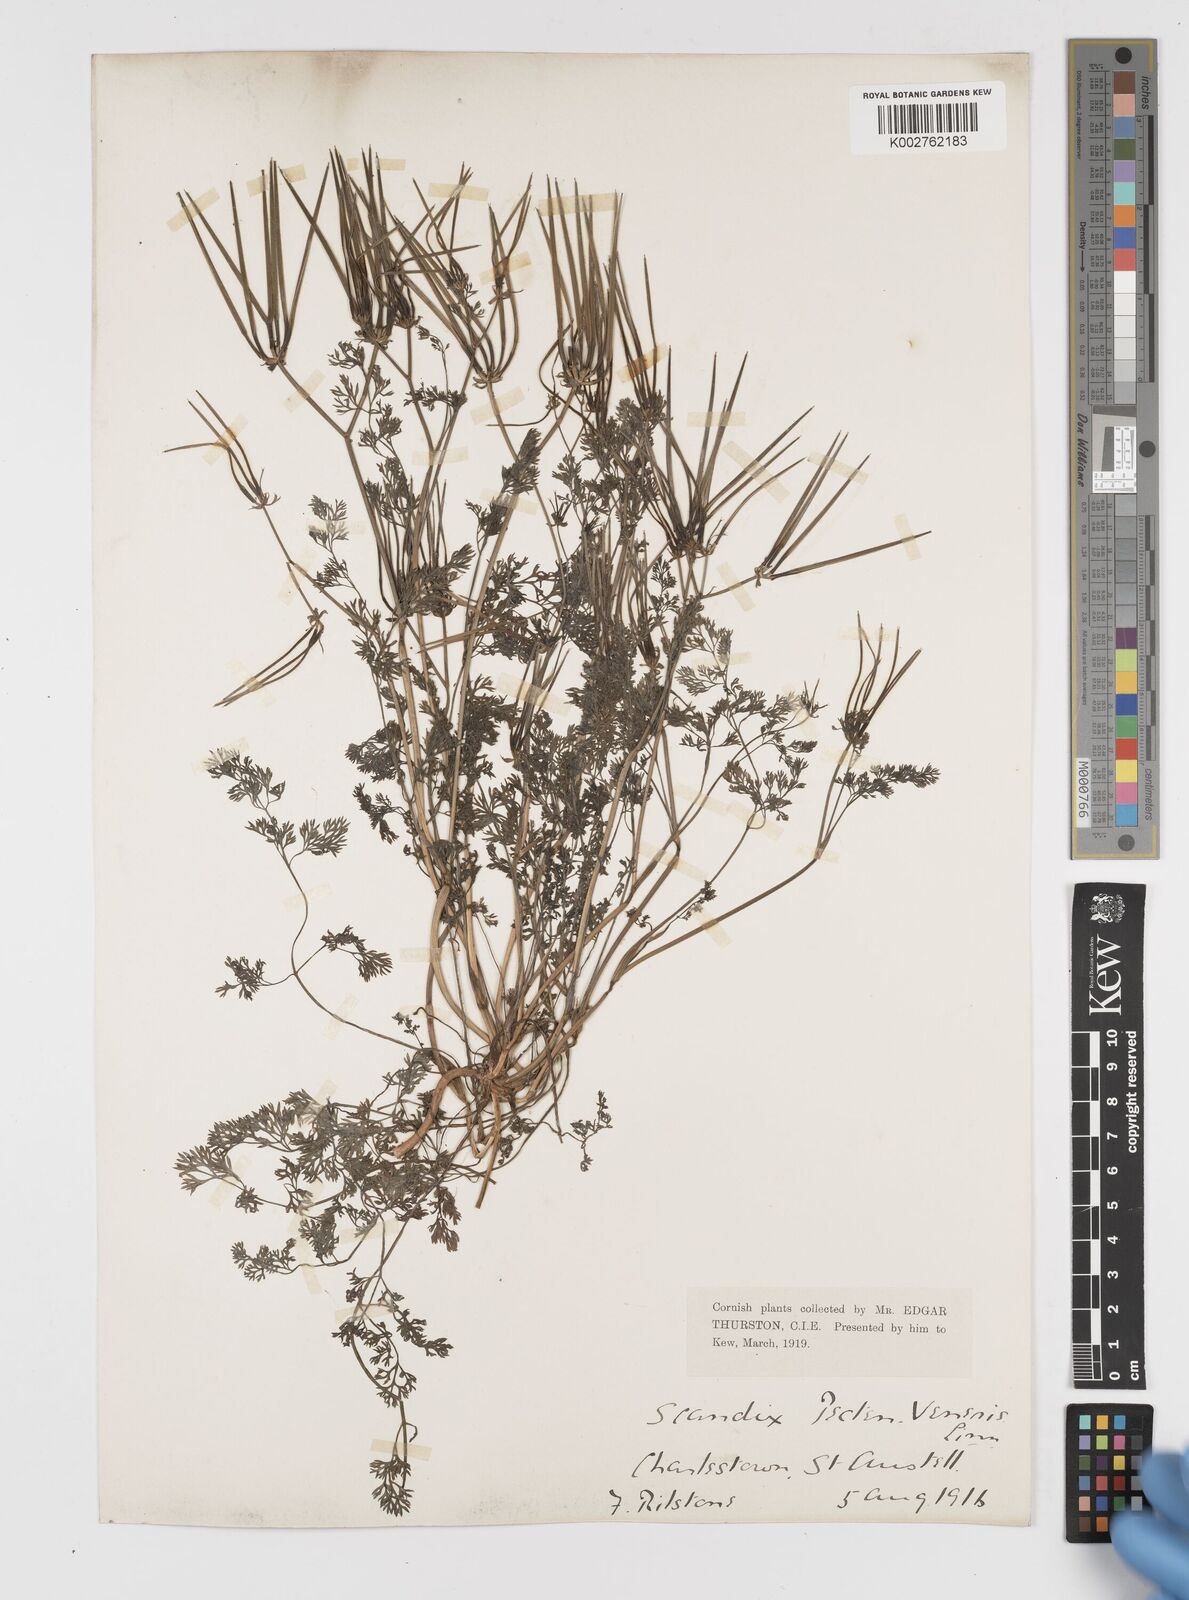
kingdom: Plantae
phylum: Tracheophyta
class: Magnoliopsida
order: Apiales
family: Apiaceae
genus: Scandix
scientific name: Scandix pecten-veneris
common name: Shepherd's-needle
